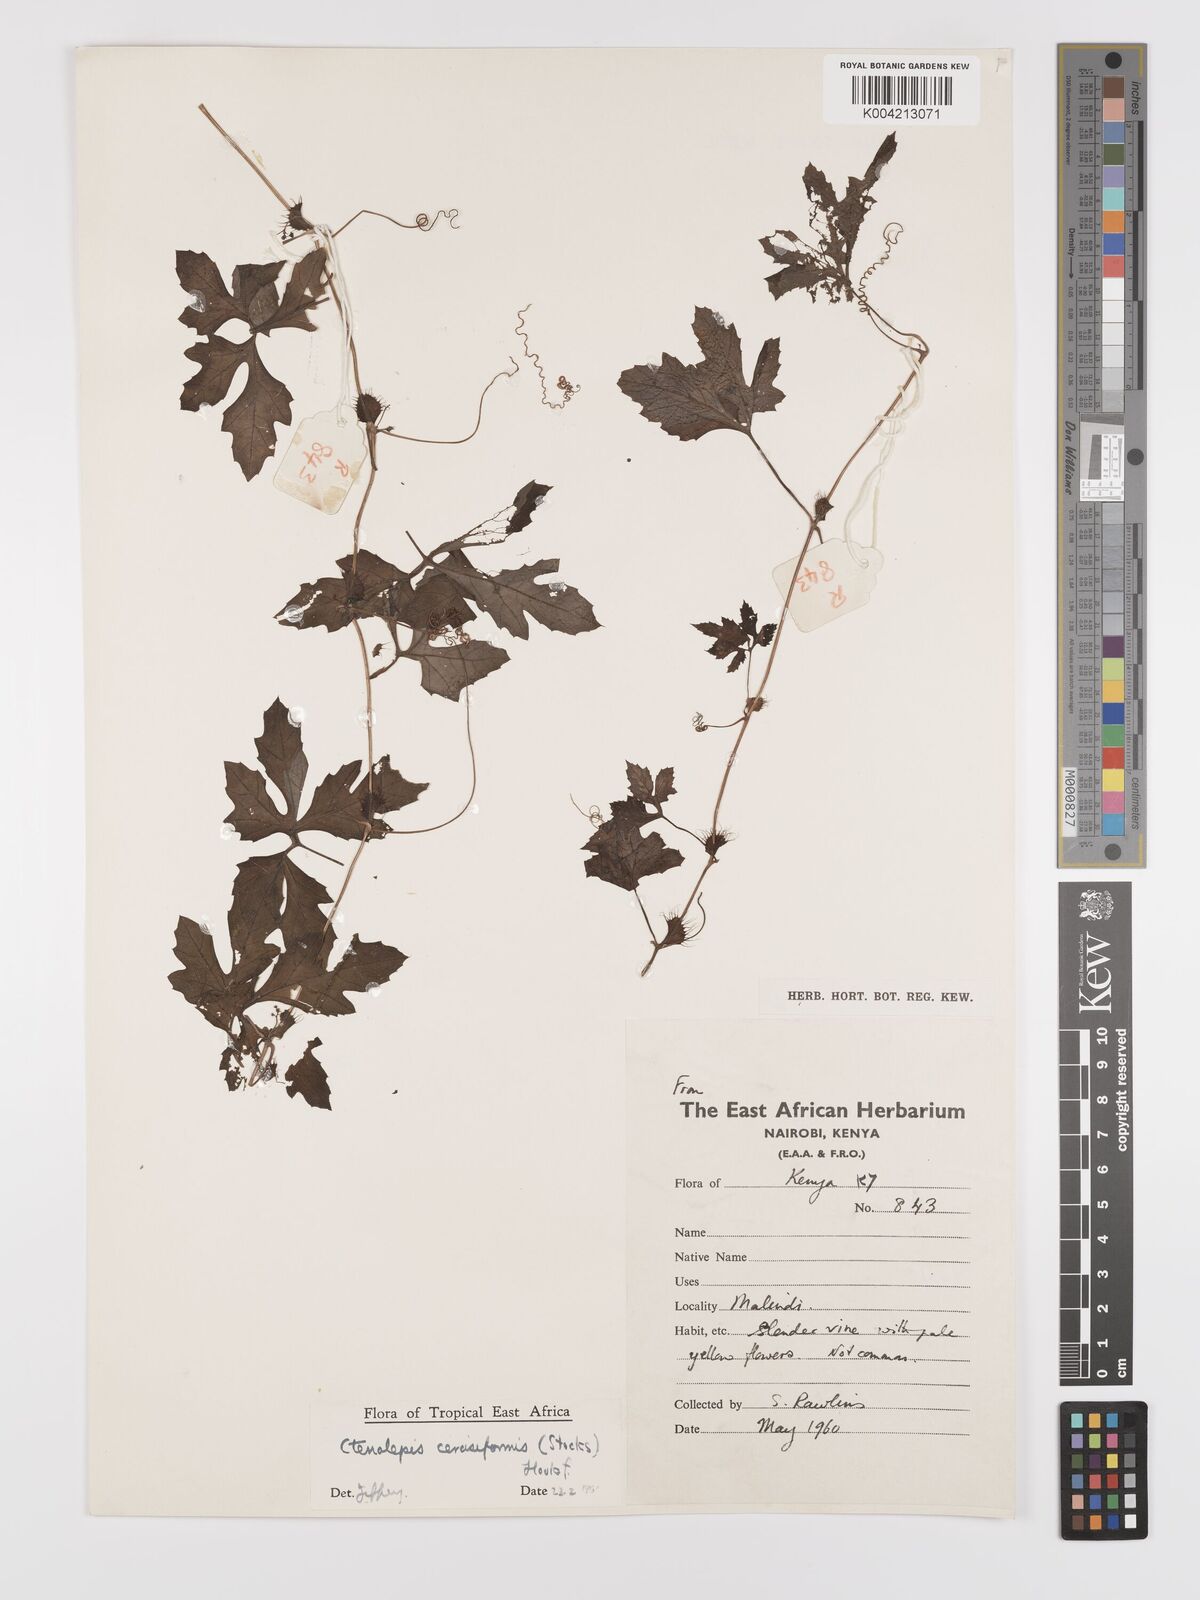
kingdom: Plantae
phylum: Tracheophyta
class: Magnoliopsida
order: Cucurbitales
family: Cucurbitaceae
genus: Blastania
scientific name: Blastania cerasiformis
